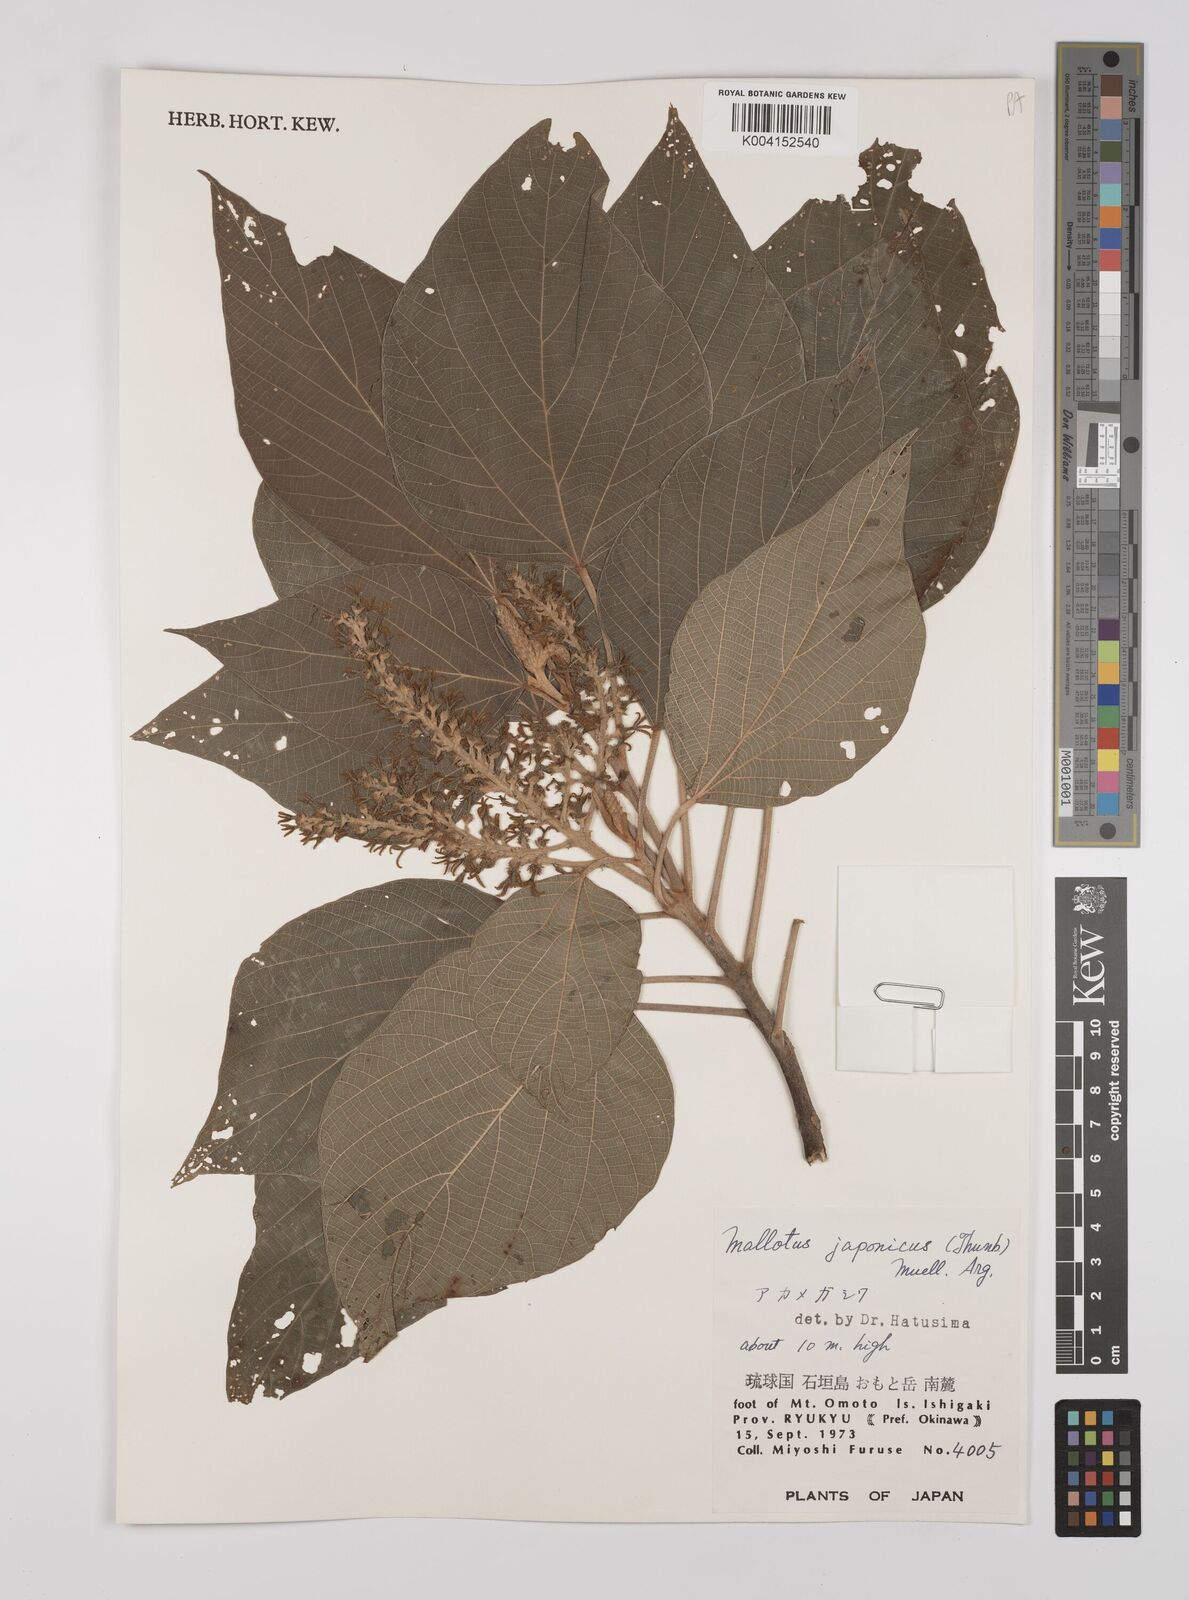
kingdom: Plantae
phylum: Tracheophyta
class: Magnoliopsida
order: Malpighiales
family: Euphorbiaceae
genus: Mallotus
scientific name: Mallotus japonicus
